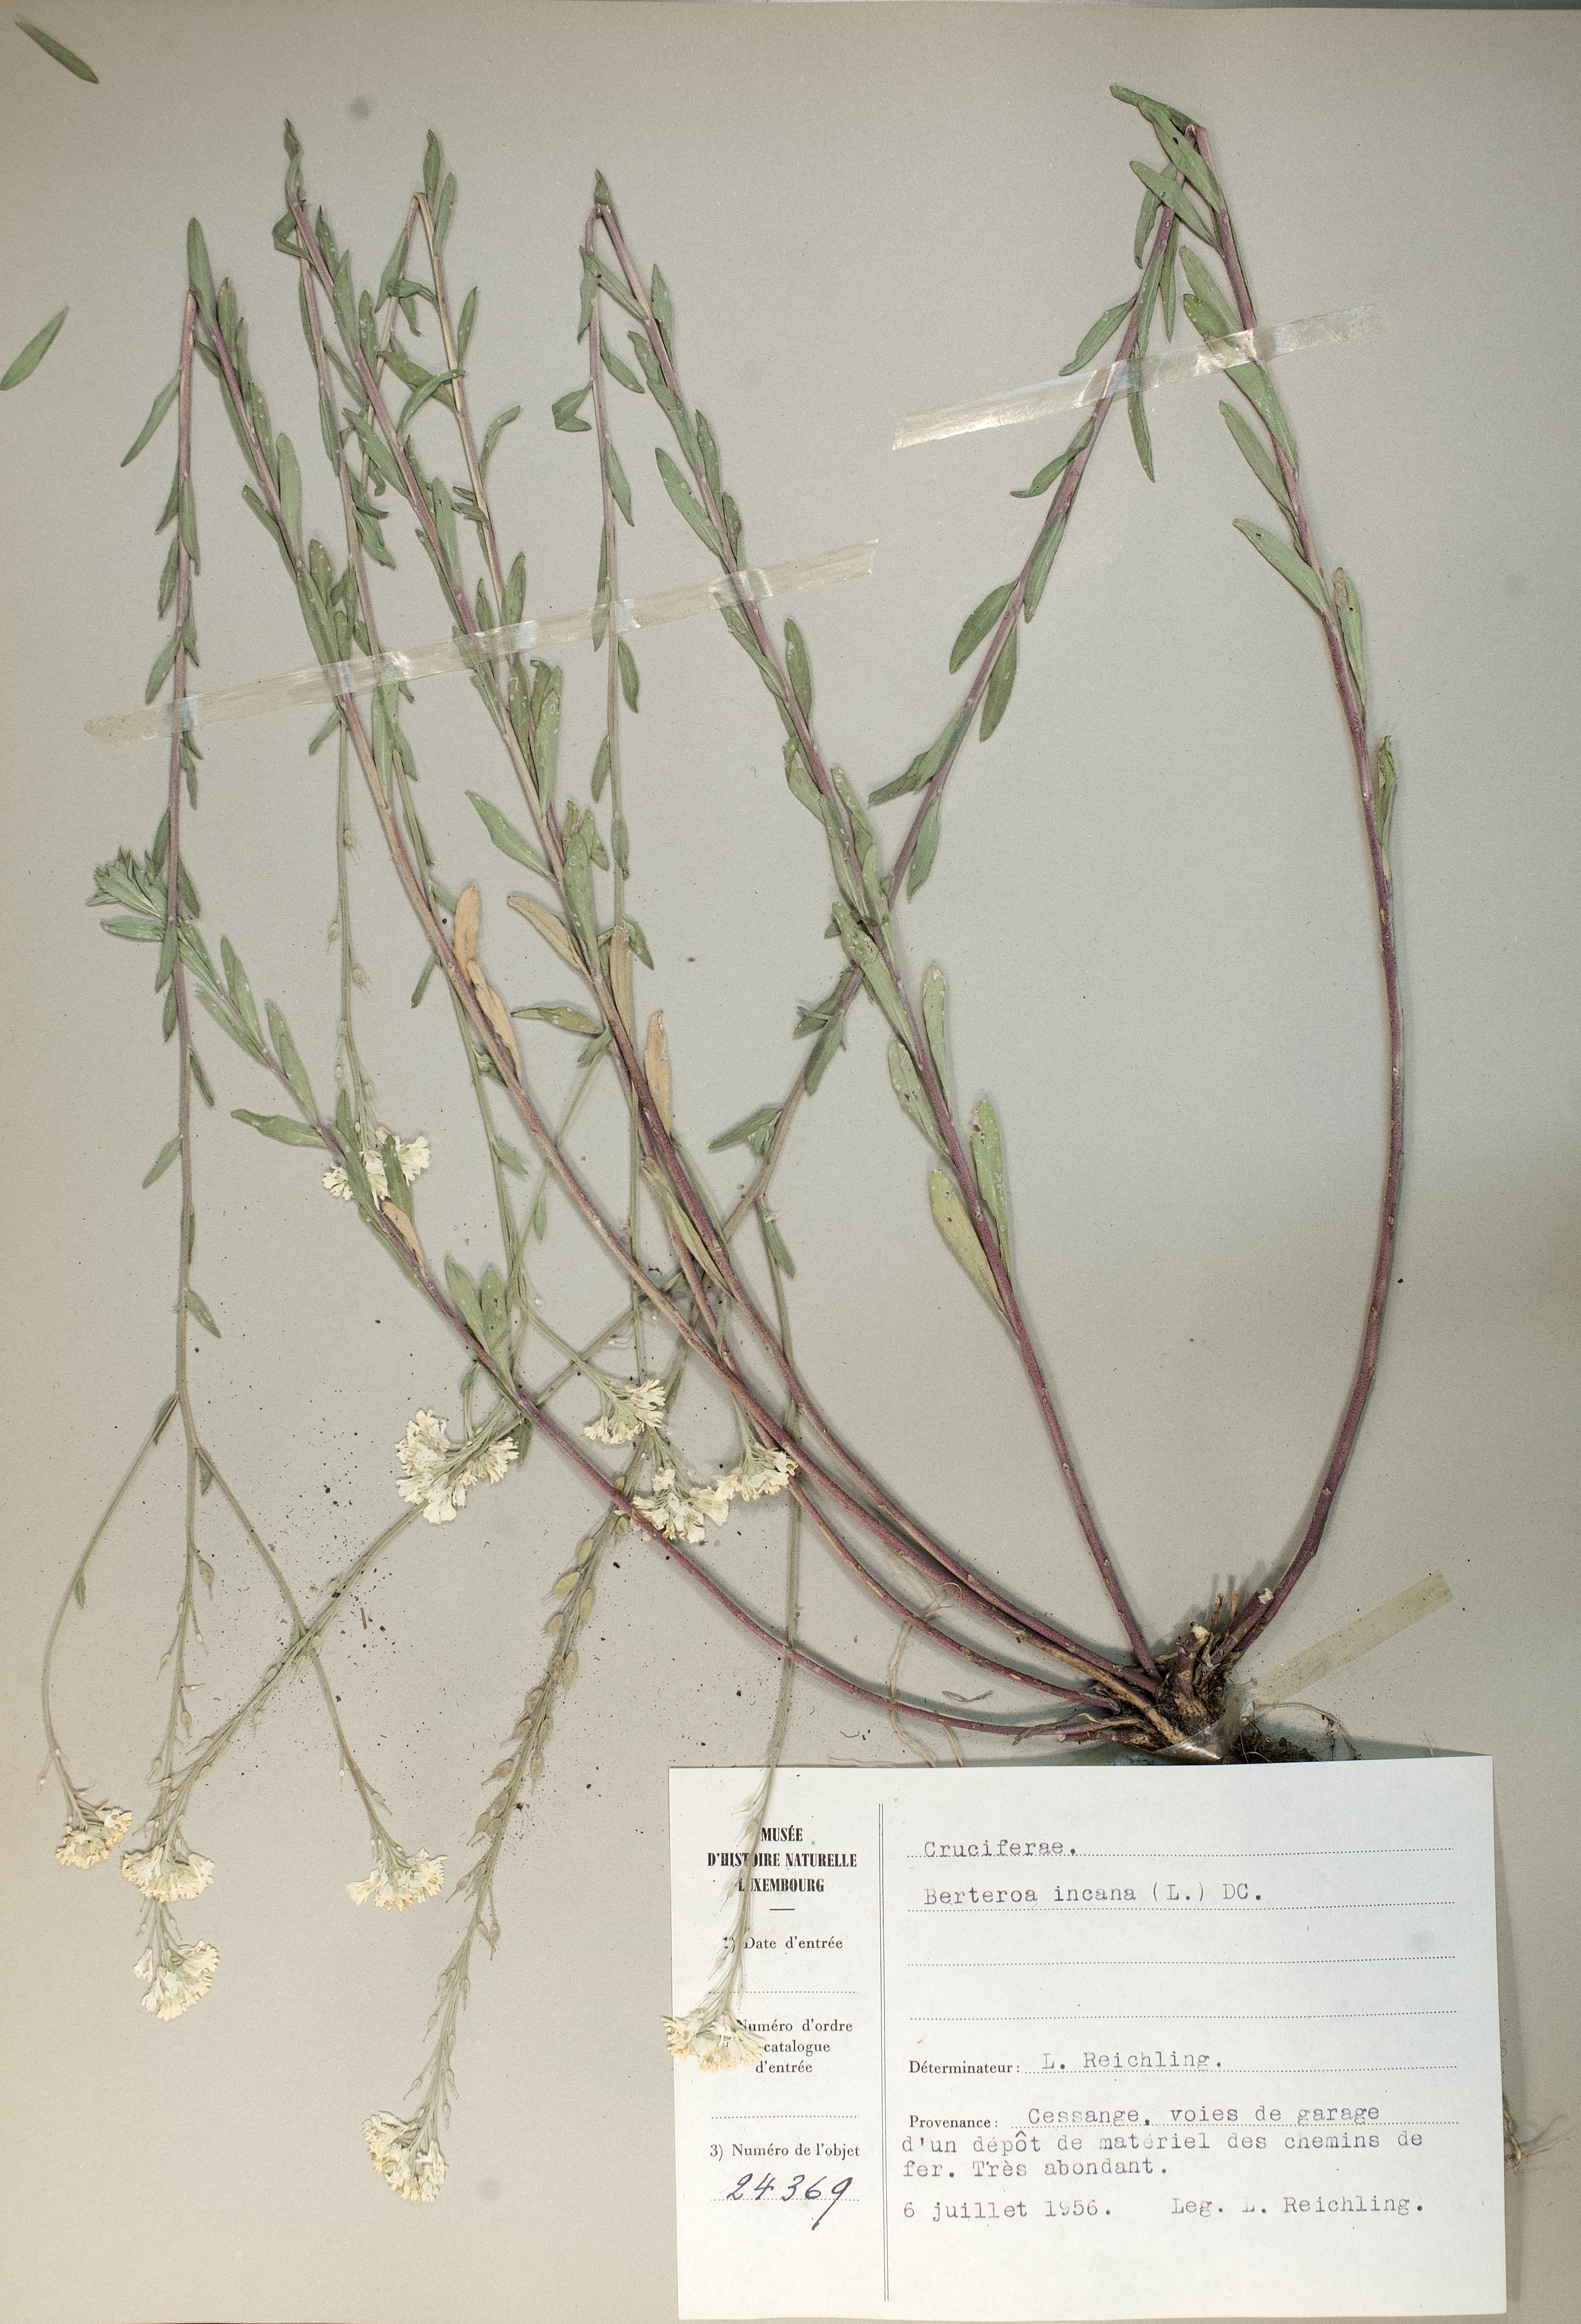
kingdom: Plantae
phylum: Tracheophyta
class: Magnoliopsida
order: Brassicales
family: Brassicaceae
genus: Berteroa
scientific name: Berteroa incana
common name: Hoary alison
